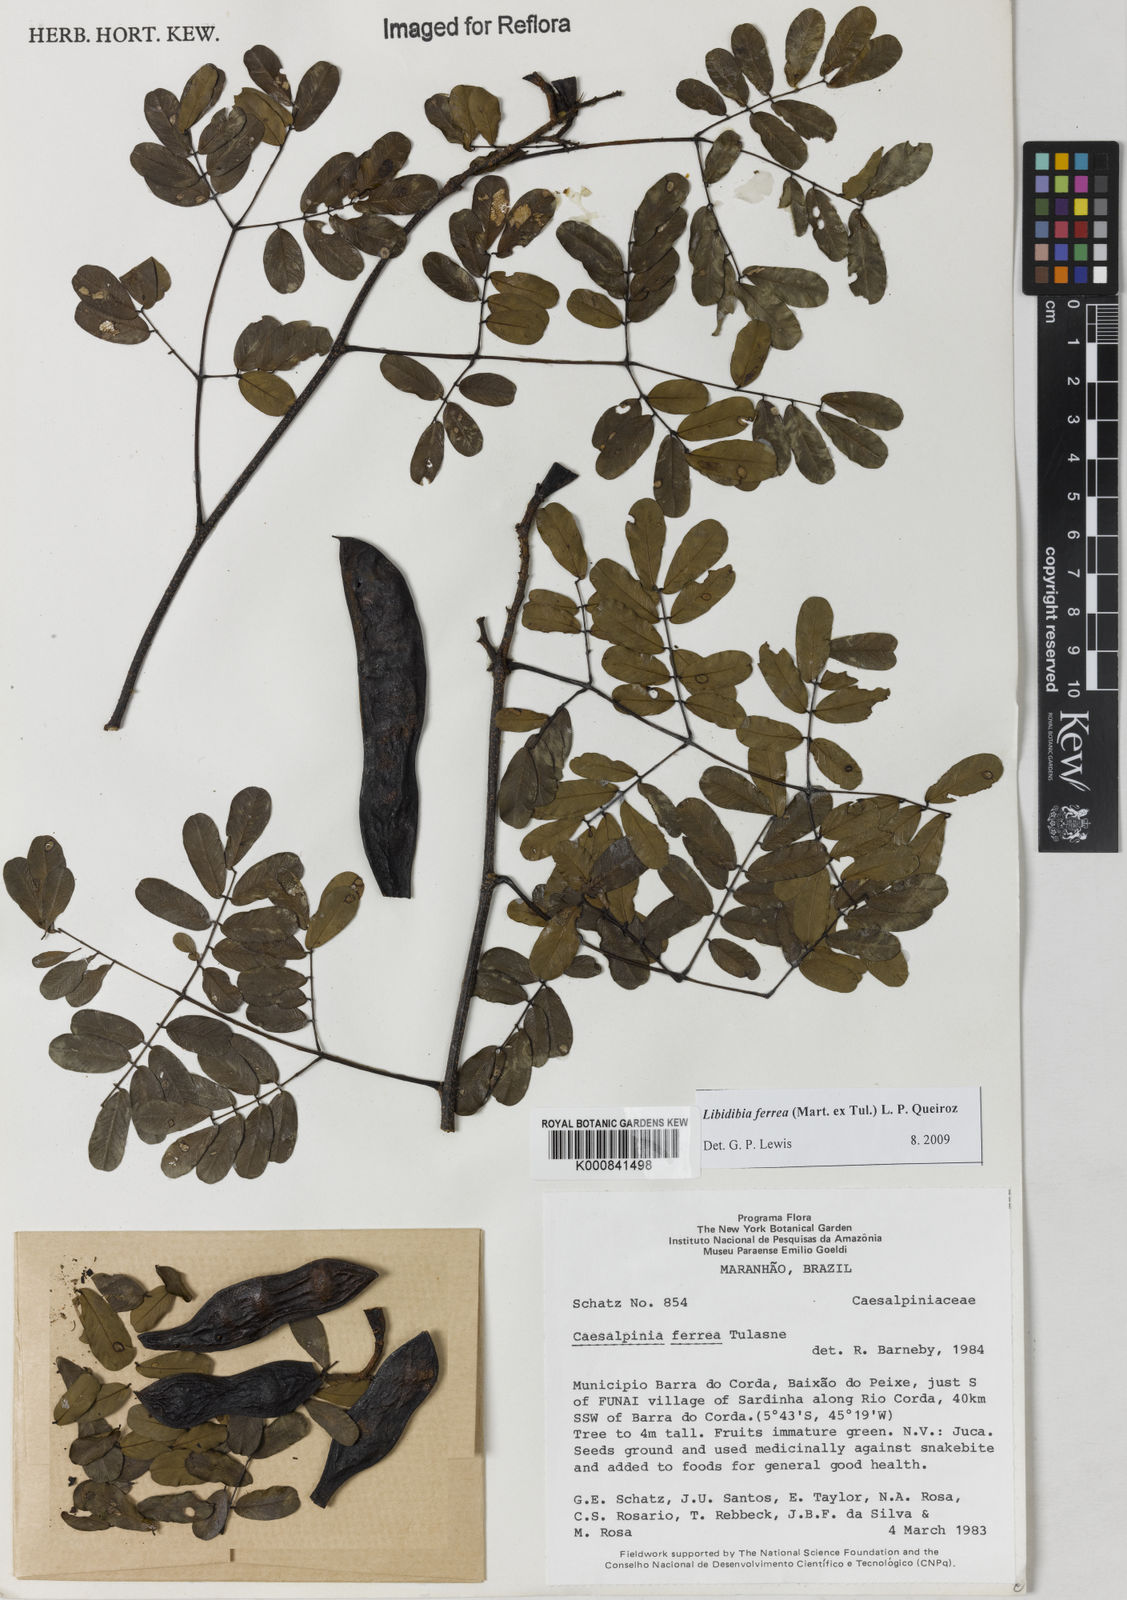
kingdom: Plantae
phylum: Tracheophyta
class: Magnoliopsida
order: Fabales
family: Fabaceae
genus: Libidibia
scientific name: Libidibia ferrea
